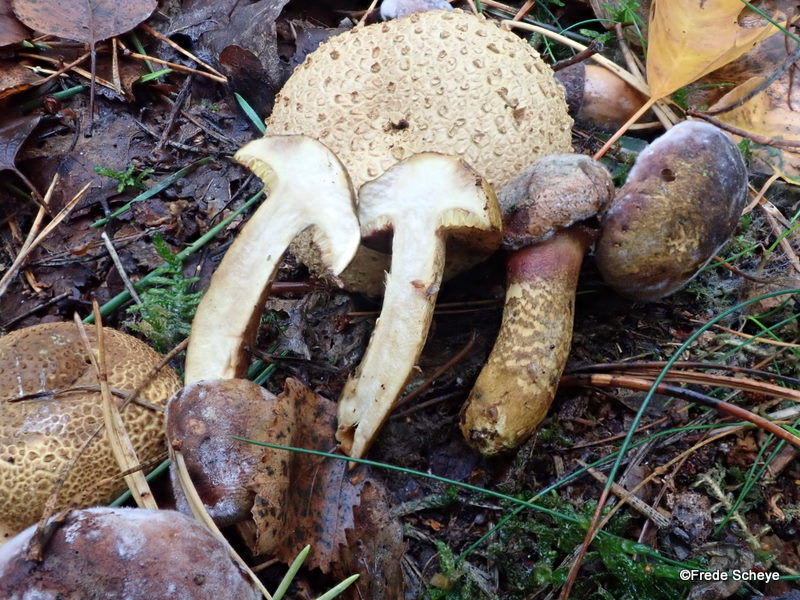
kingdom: Fungi
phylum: Basidiomycota
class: Agaricomycetes
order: Boletales
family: Boletaceae
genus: Pseudoboletus
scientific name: Pseudoboletus parasiticus
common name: snyltende rørhat
